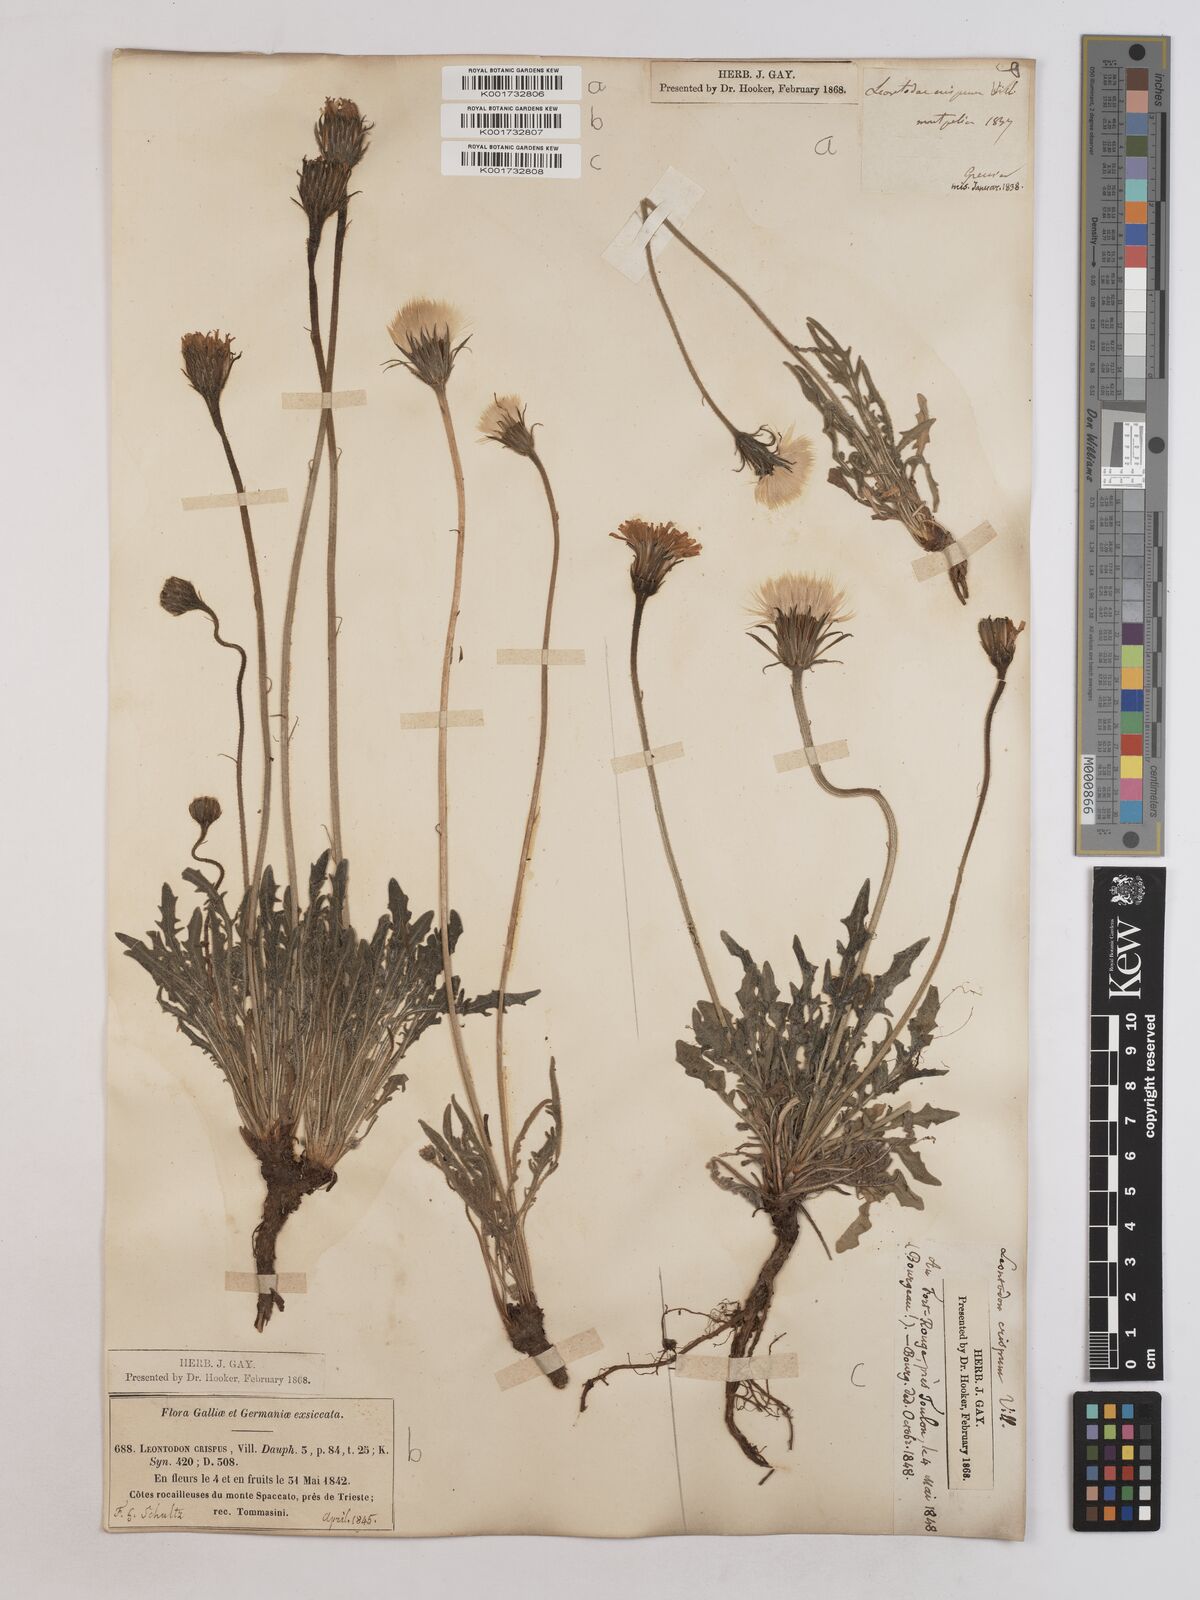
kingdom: Plantae
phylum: Tracheophyta
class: Magnoliopsida
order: Asterales
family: Asteraceae
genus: Leontodon
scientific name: Leontodon crispus
